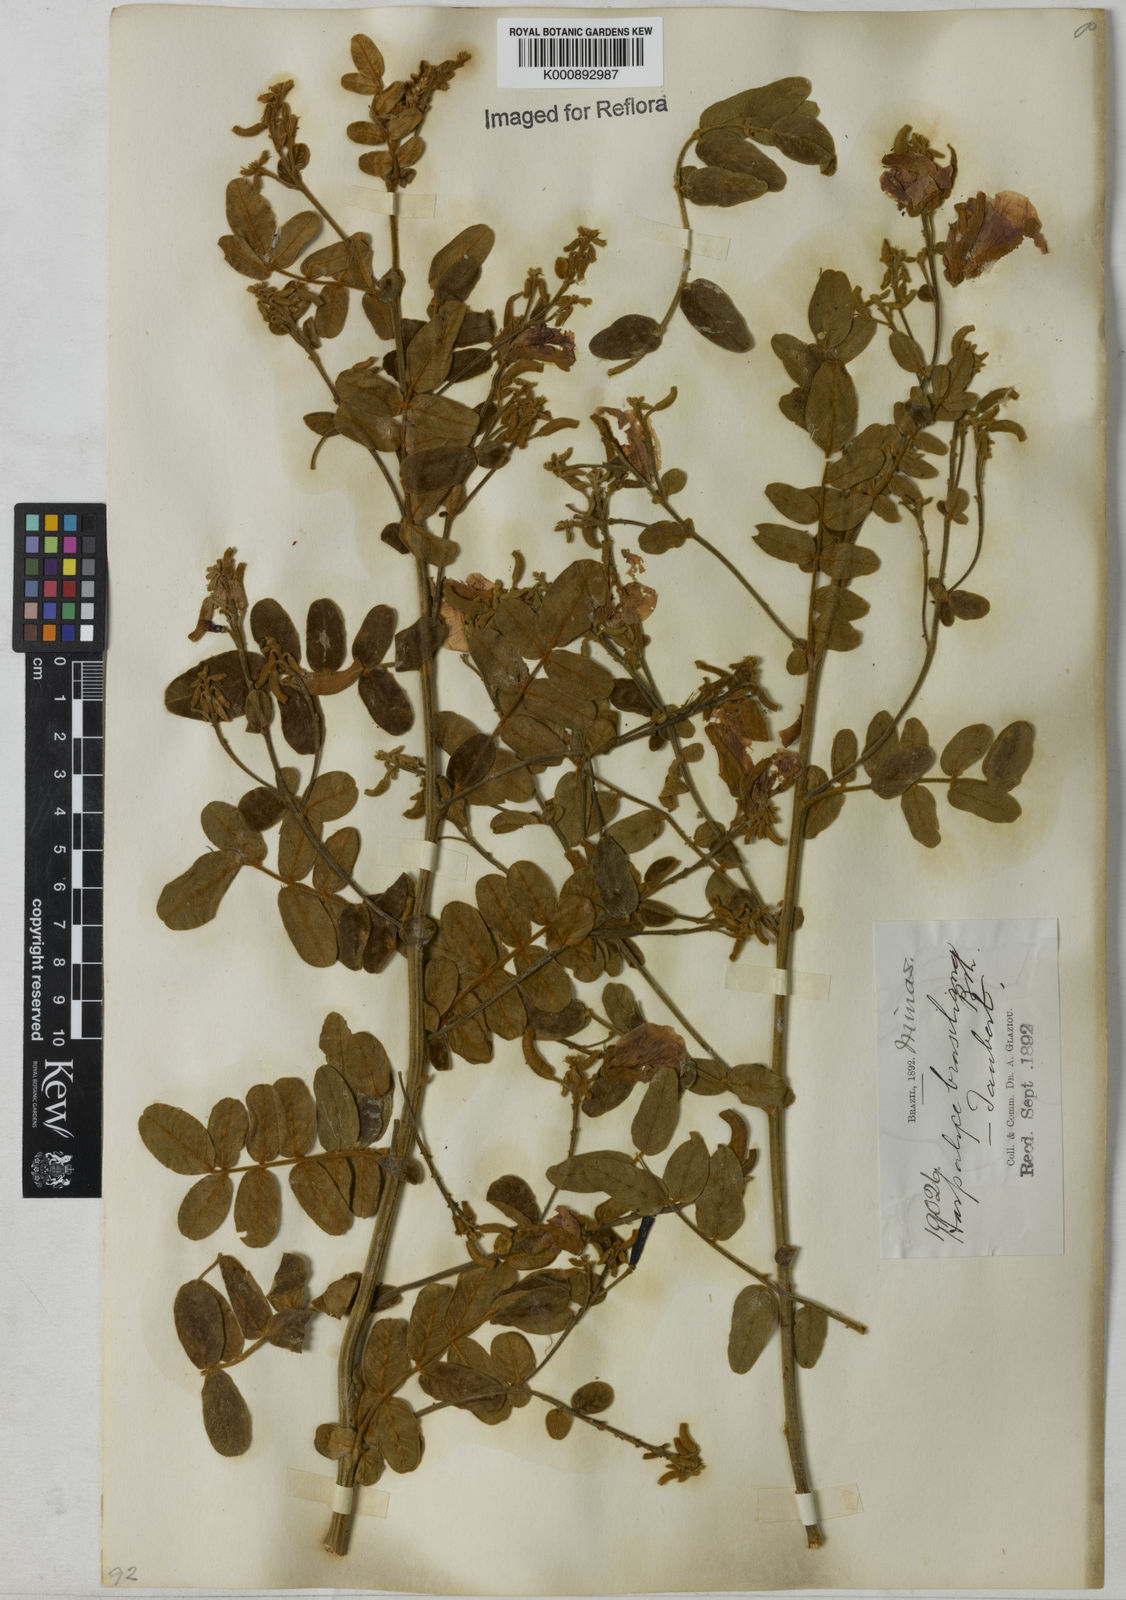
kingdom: Plantae
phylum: Tracheophyta
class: Magnoliopsida
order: Fabales
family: Fabaceae
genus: Harpalyce
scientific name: Harpalyce brasiliana
